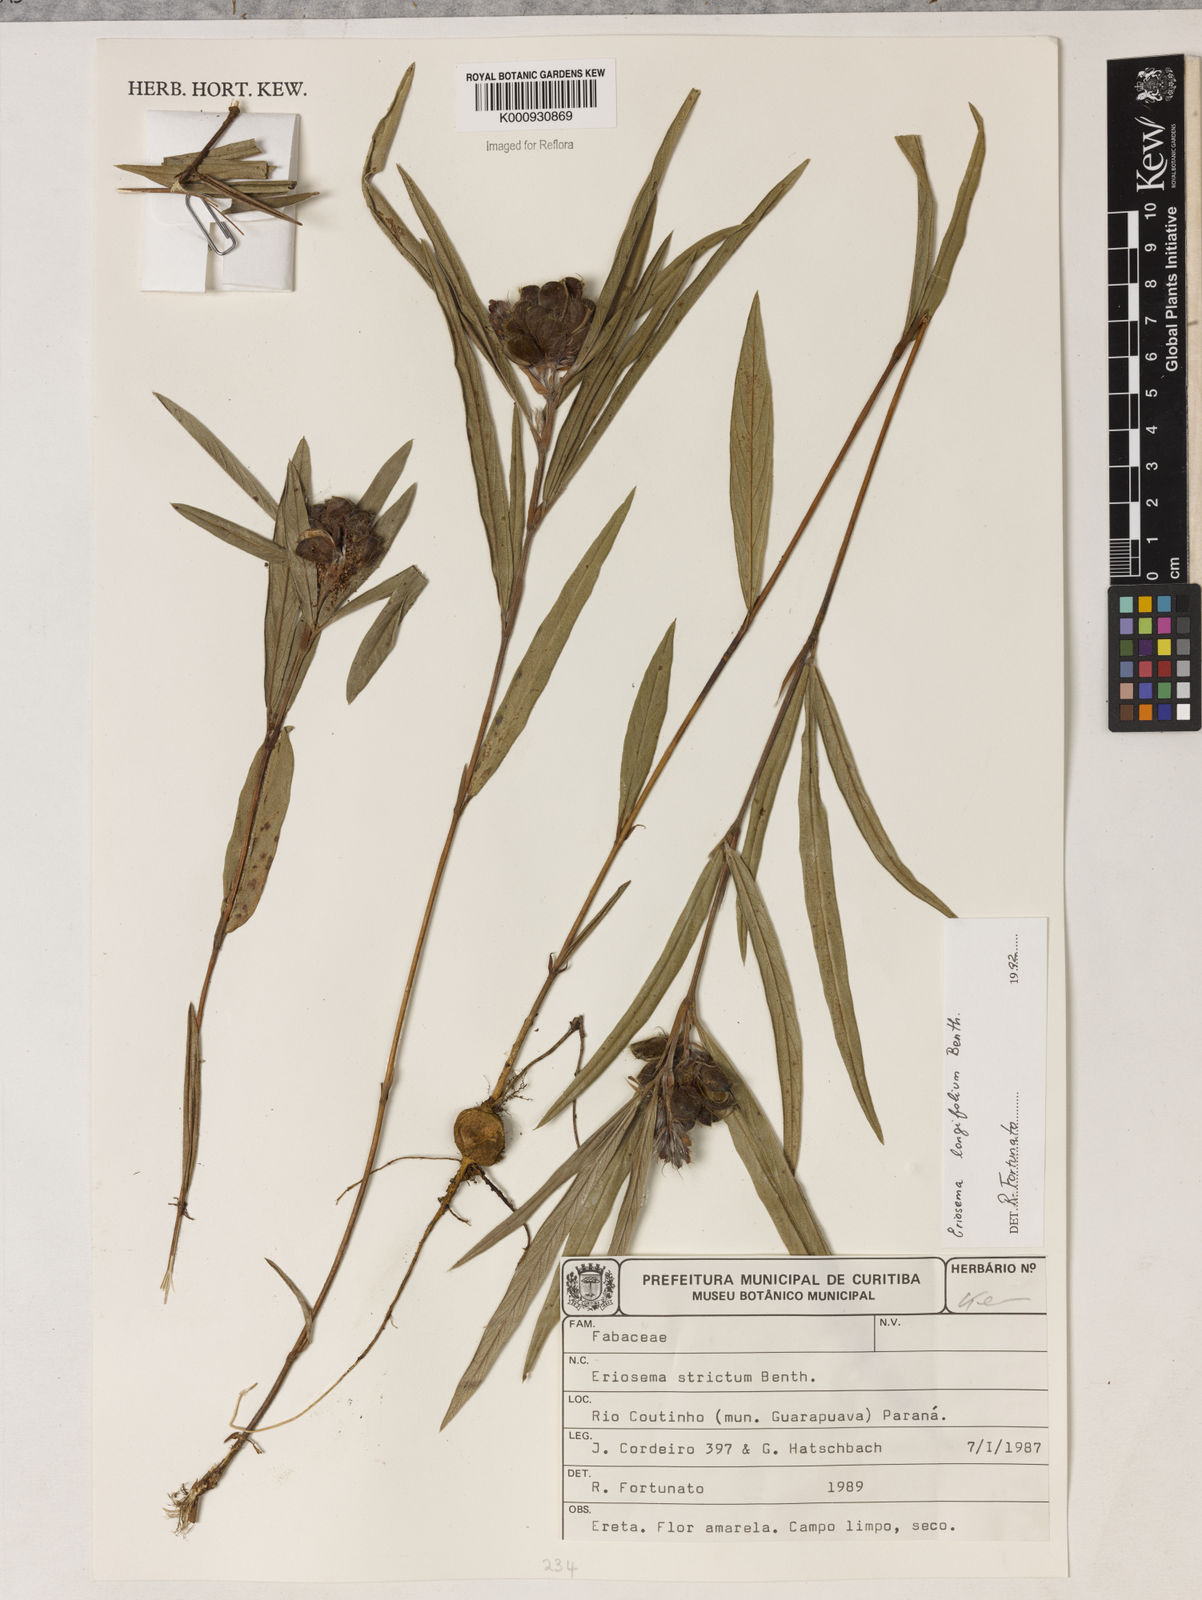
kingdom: Plantae
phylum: Tracheophyta
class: Magnoliopsida
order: Fabales
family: Fabaceae
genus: Eriosema
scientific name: Eriosema longifolium
